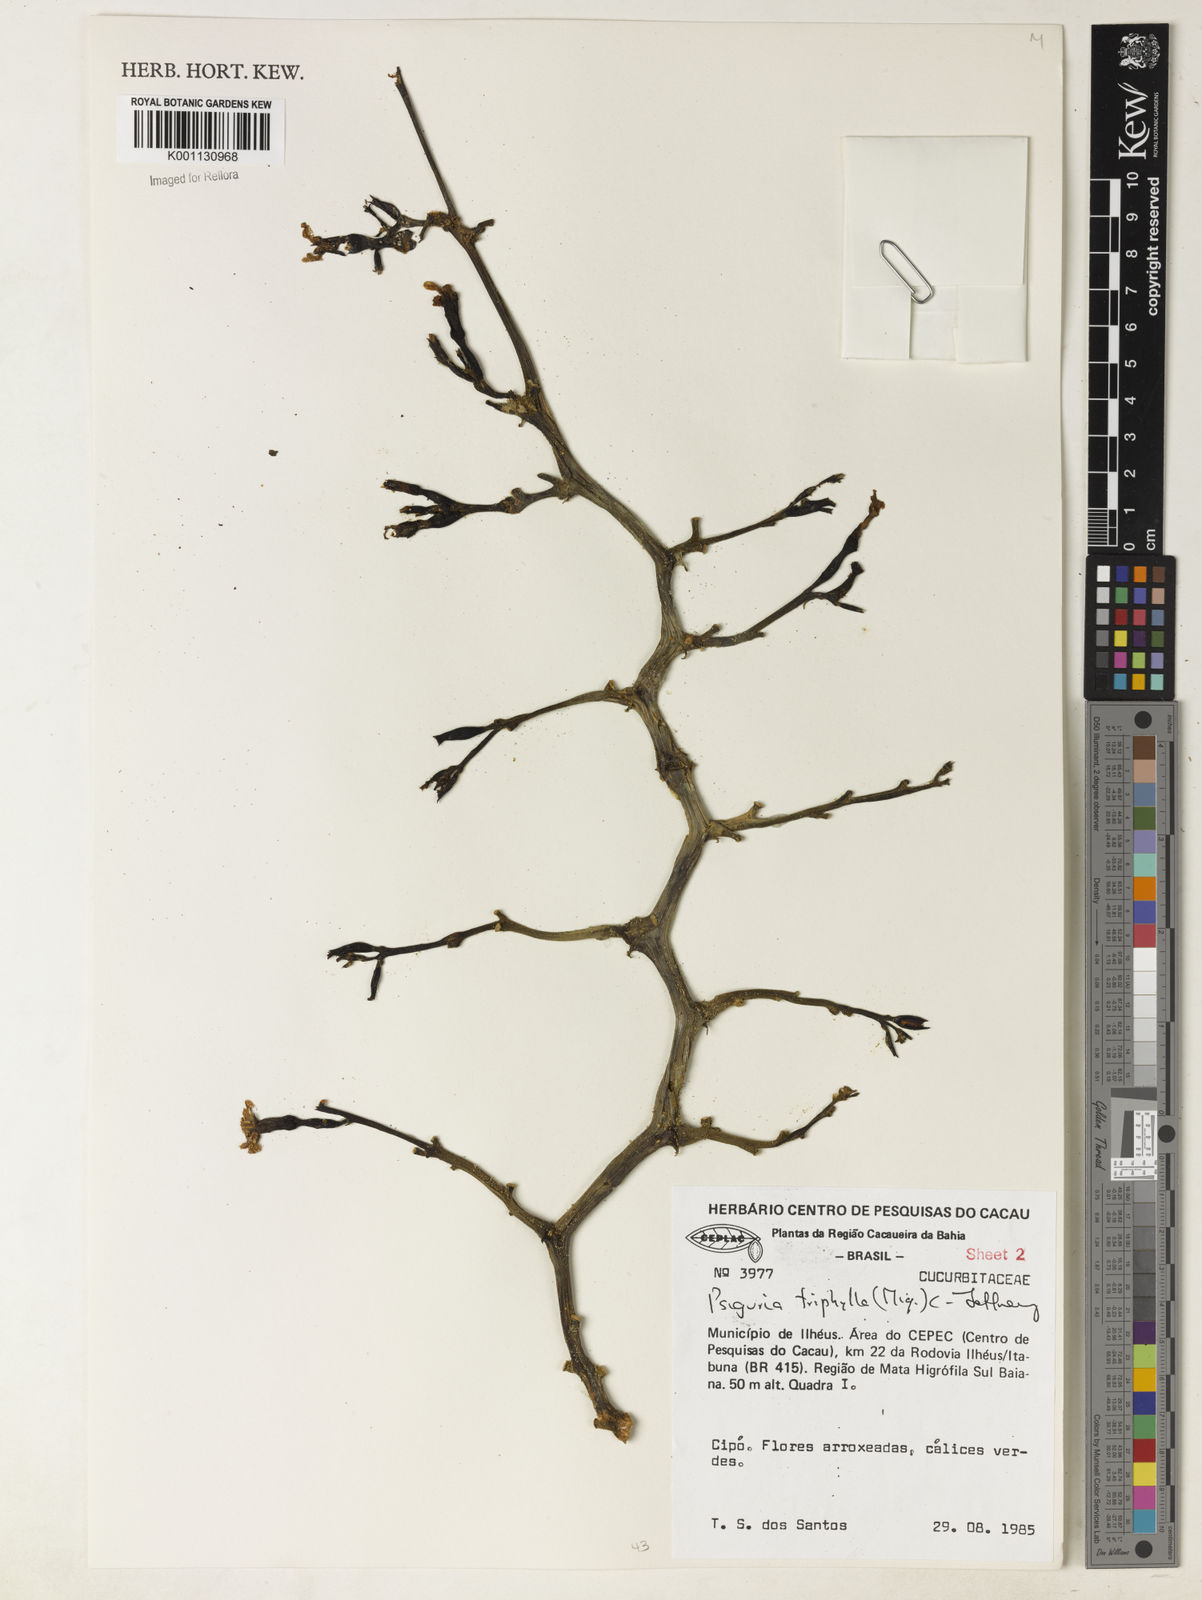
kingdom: Plantae
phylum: Tracheophyta
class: Magnoliopsida
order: Cucurbitales
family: Cucurbitaceae
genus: Psiguria
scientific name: Psiguria triphylla
